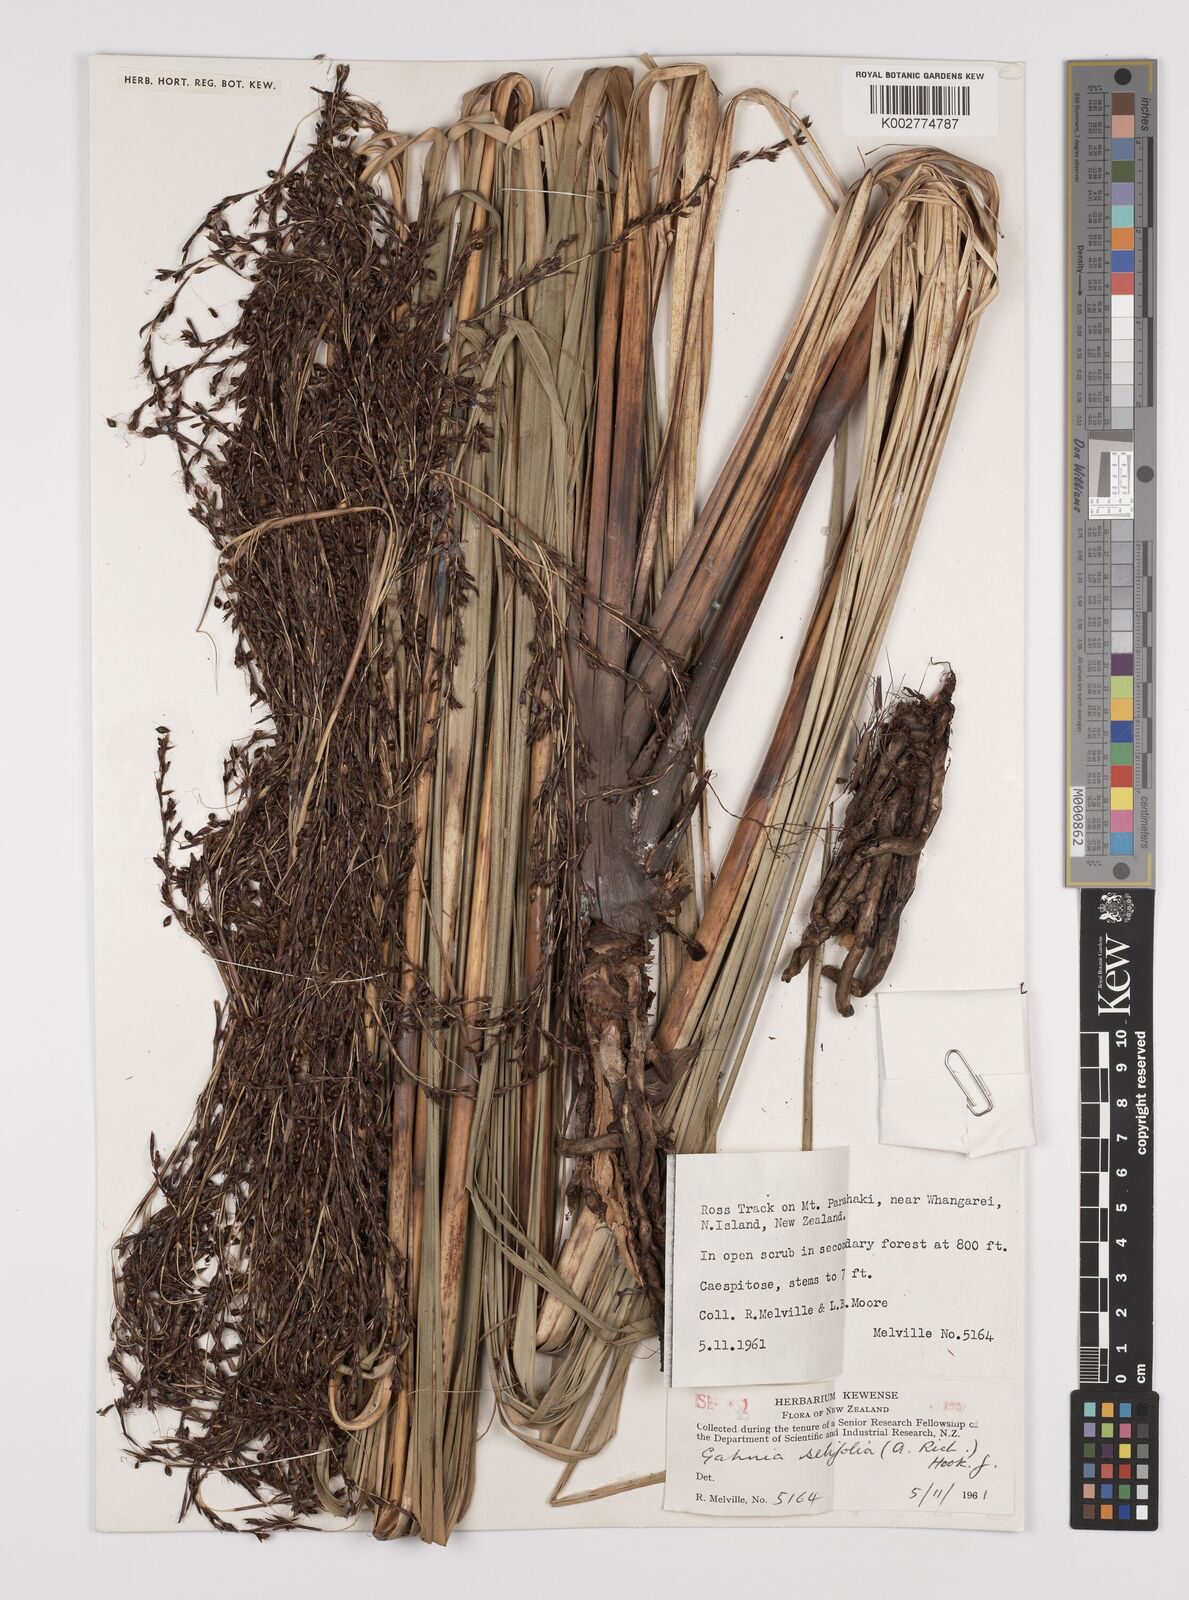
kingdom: Plantae
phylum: Tracheophyta
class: Liliopsida
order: Poales
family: Cyperaceae
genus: Gahnia
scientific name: Gahnia setifolia
